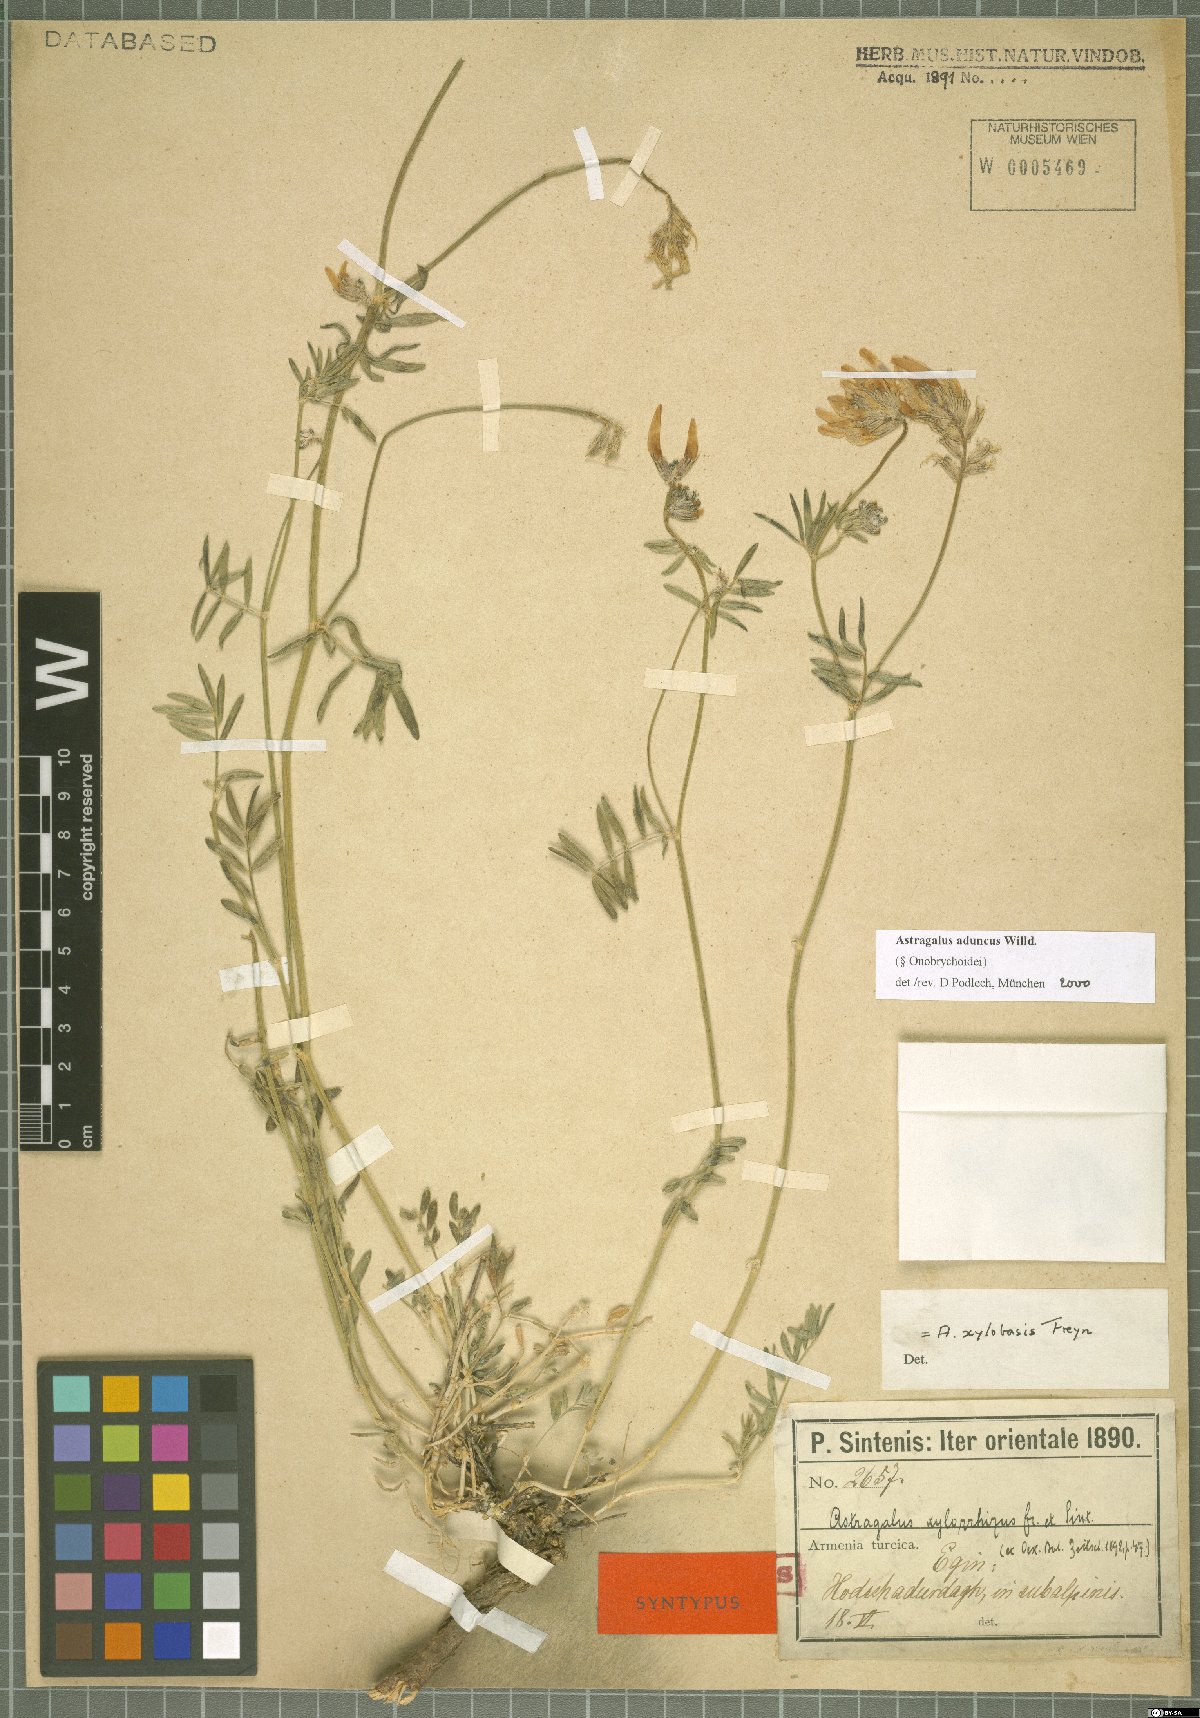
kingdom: Plantae
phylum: Tracheophyta
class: Magnoliopsida
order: Fabales
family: Fabaceae
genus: Astragalus
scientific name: Astragalus aduncus
